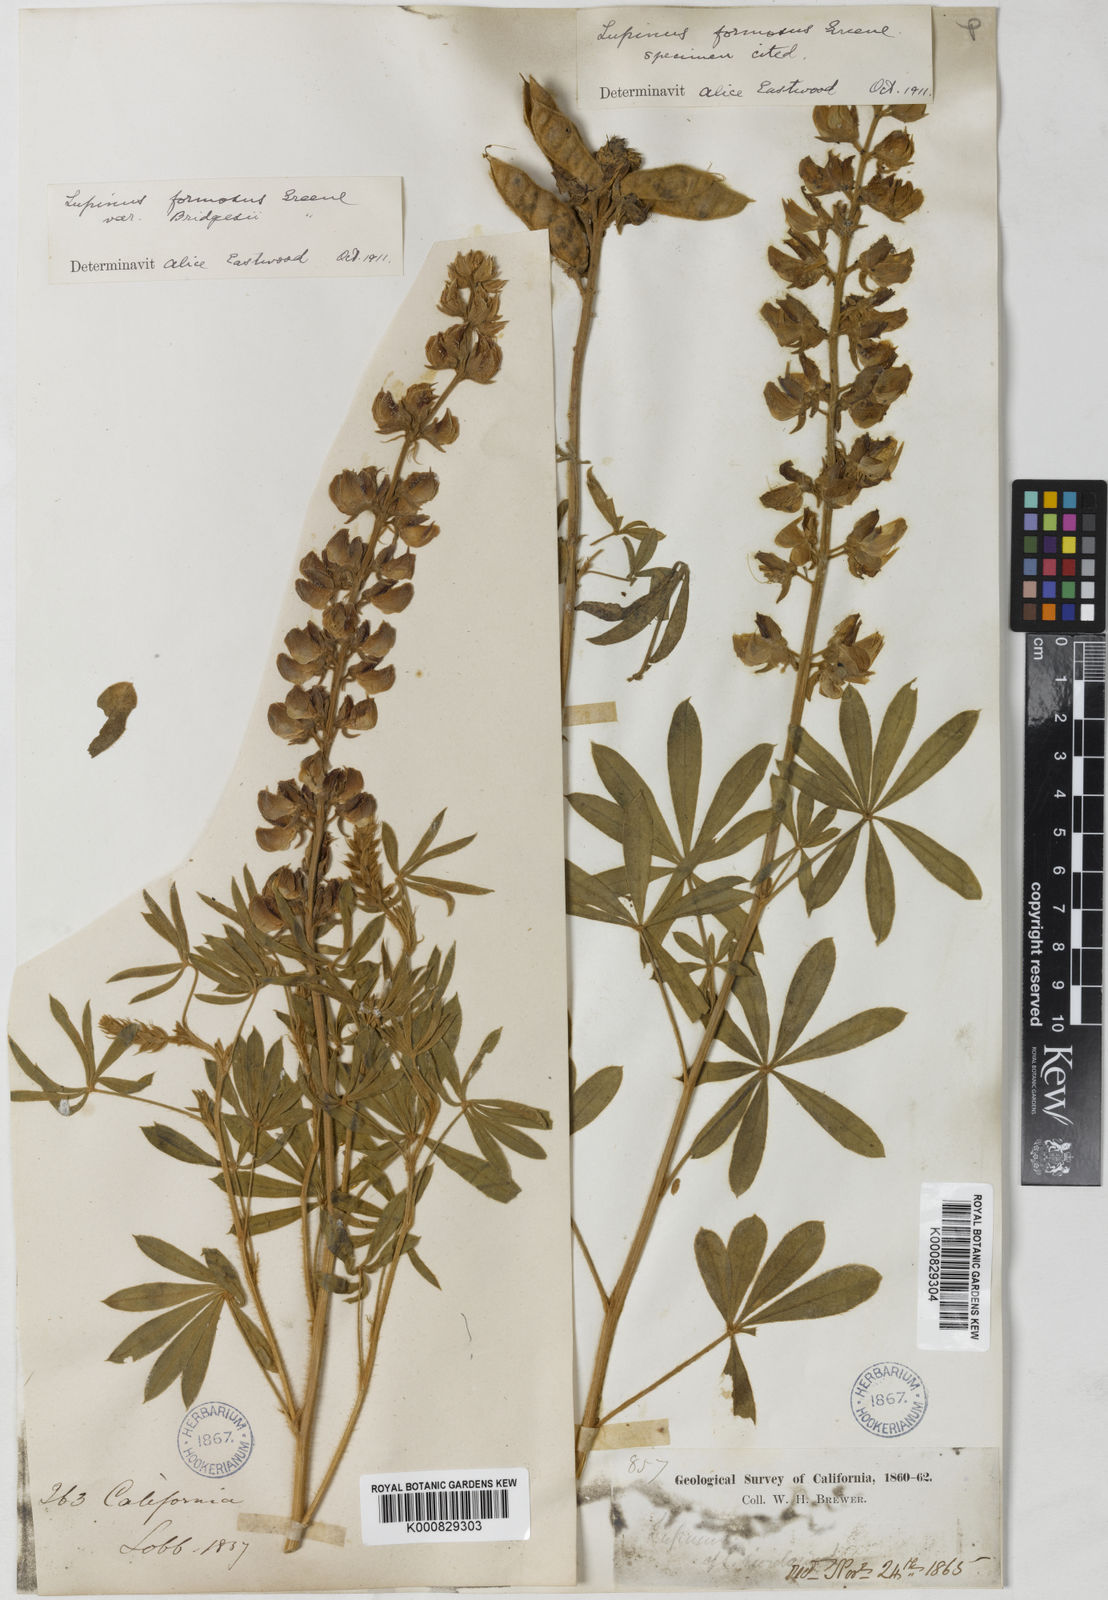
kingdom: Plantae
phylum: Tracheophyta
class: Magnoliopsida
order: Fabales
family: Fabaceae
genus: Lupinus
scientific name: Lupinus formosus
